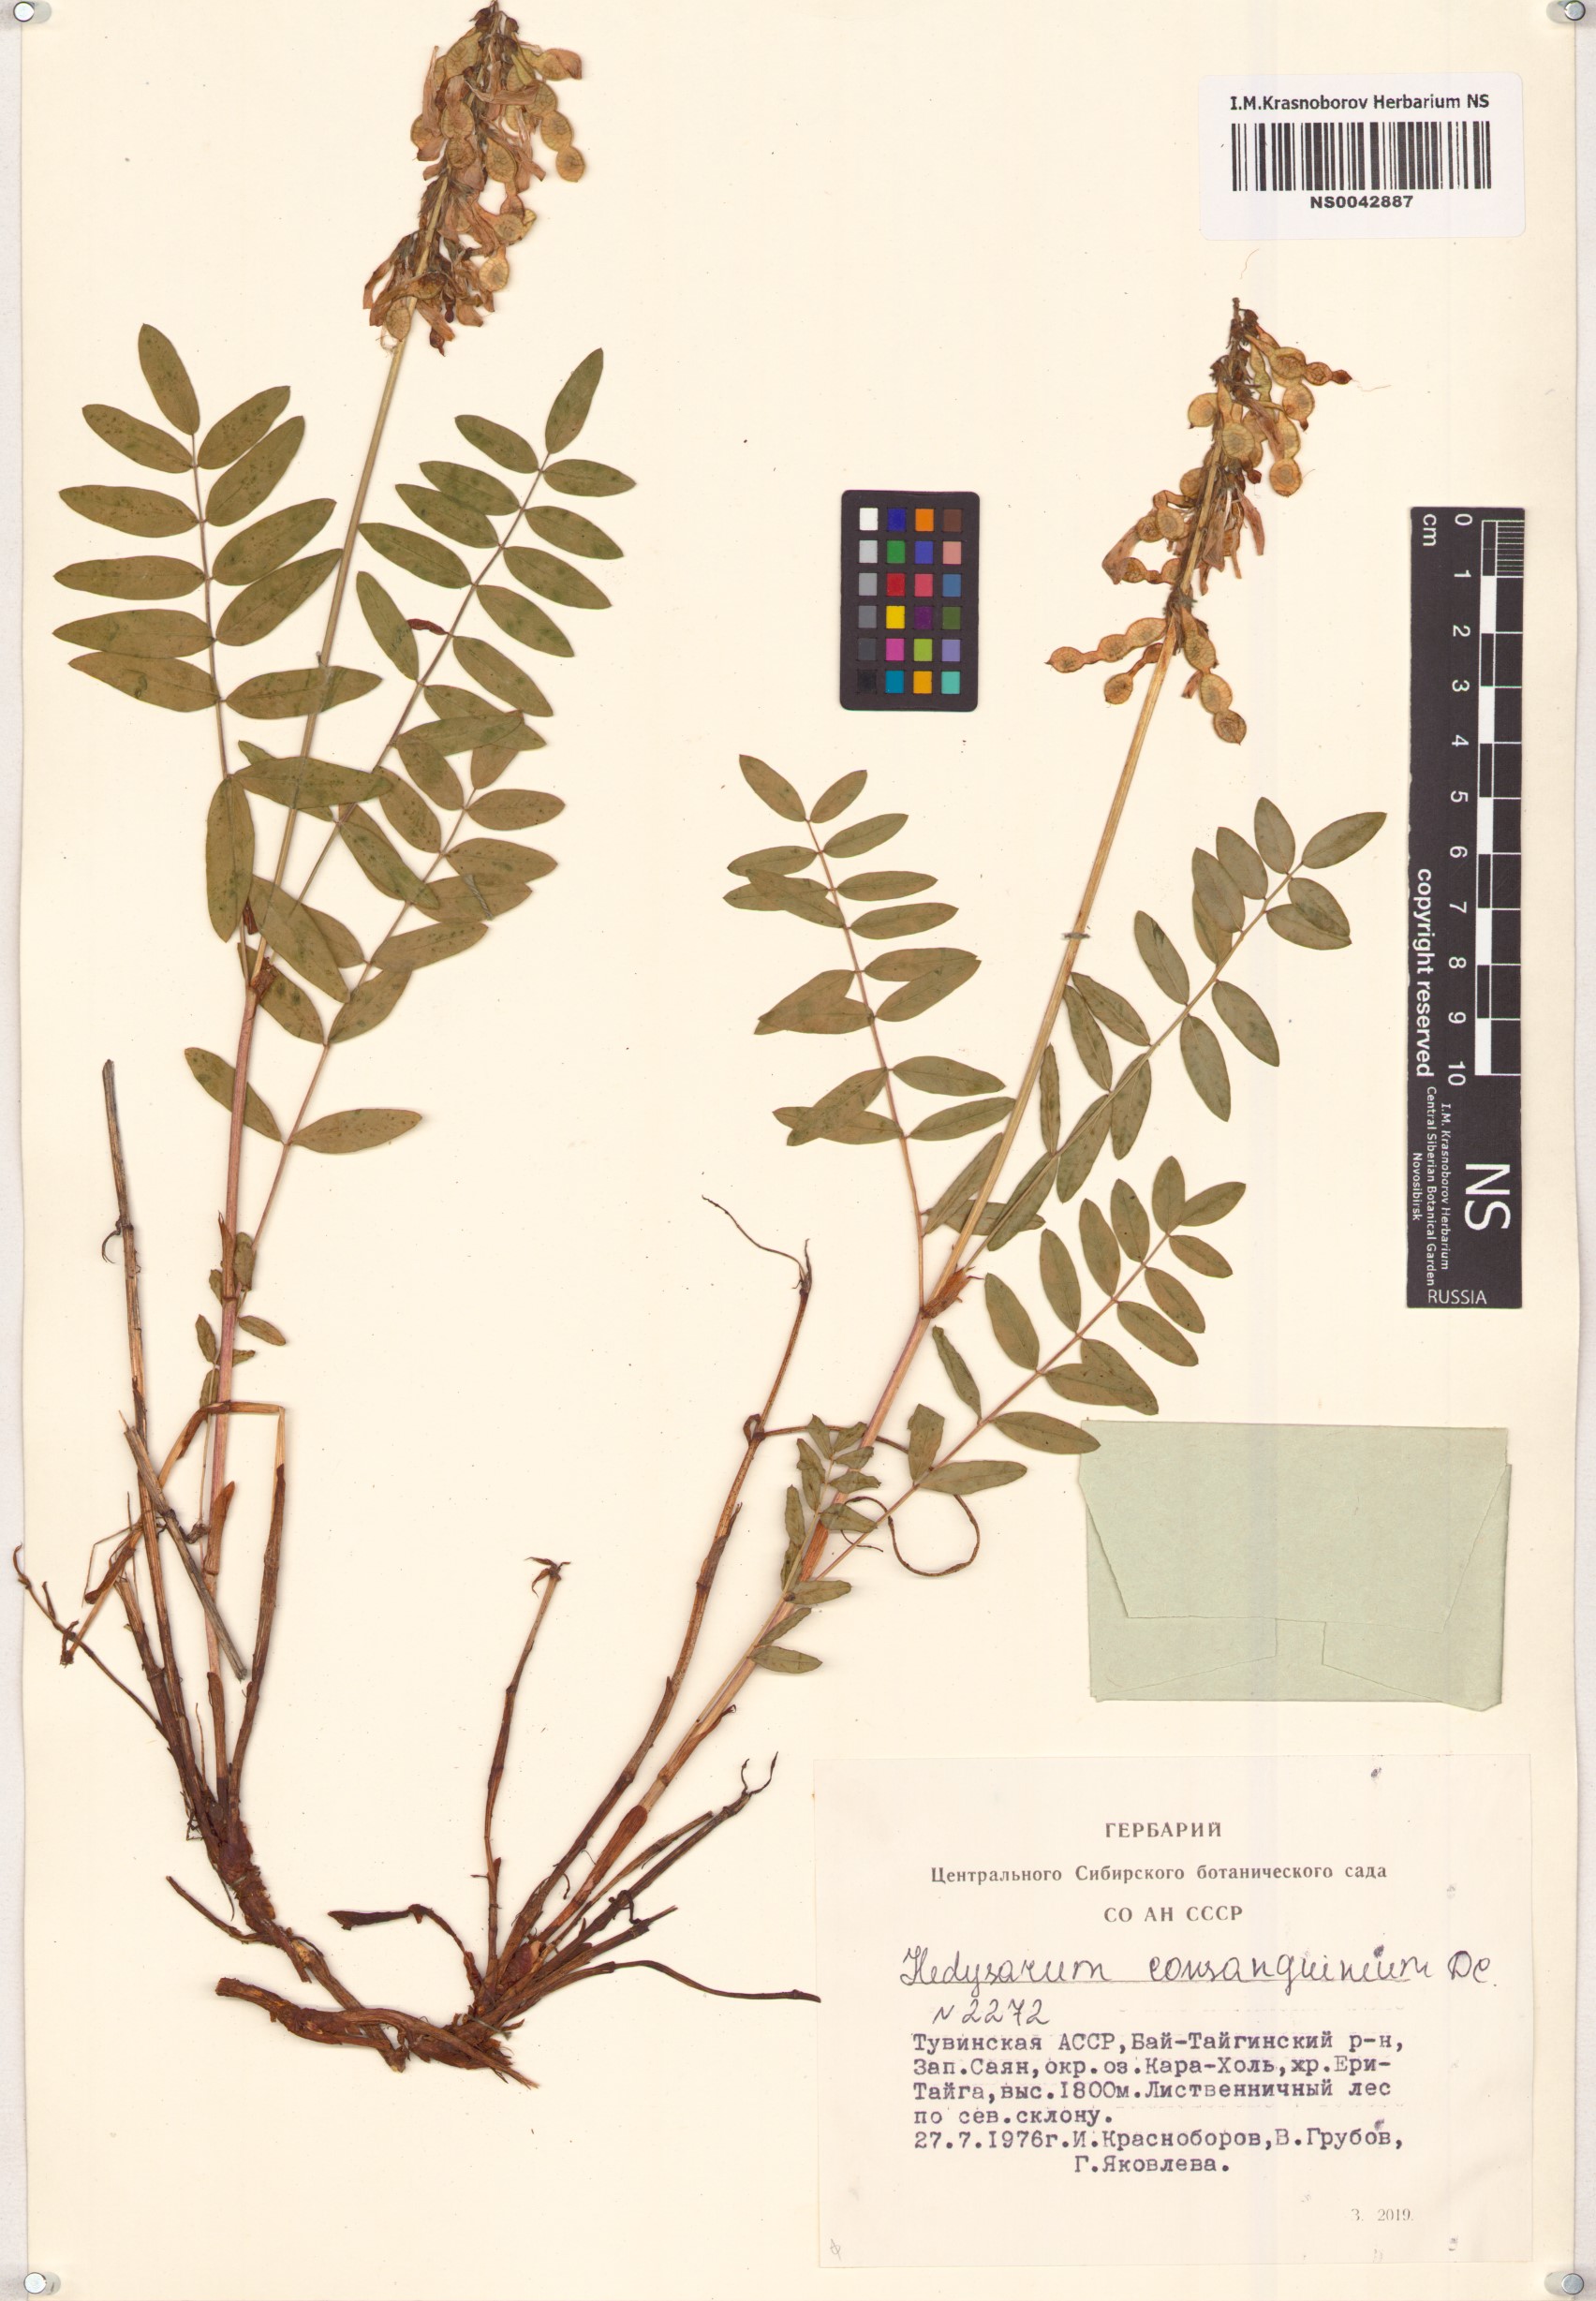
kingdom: Plantae
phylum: Tracheophyta
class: Magnoliopsida
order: Fabales
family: Fabaceae
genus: Hedysarum
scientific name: Hedysarum consanguineum
